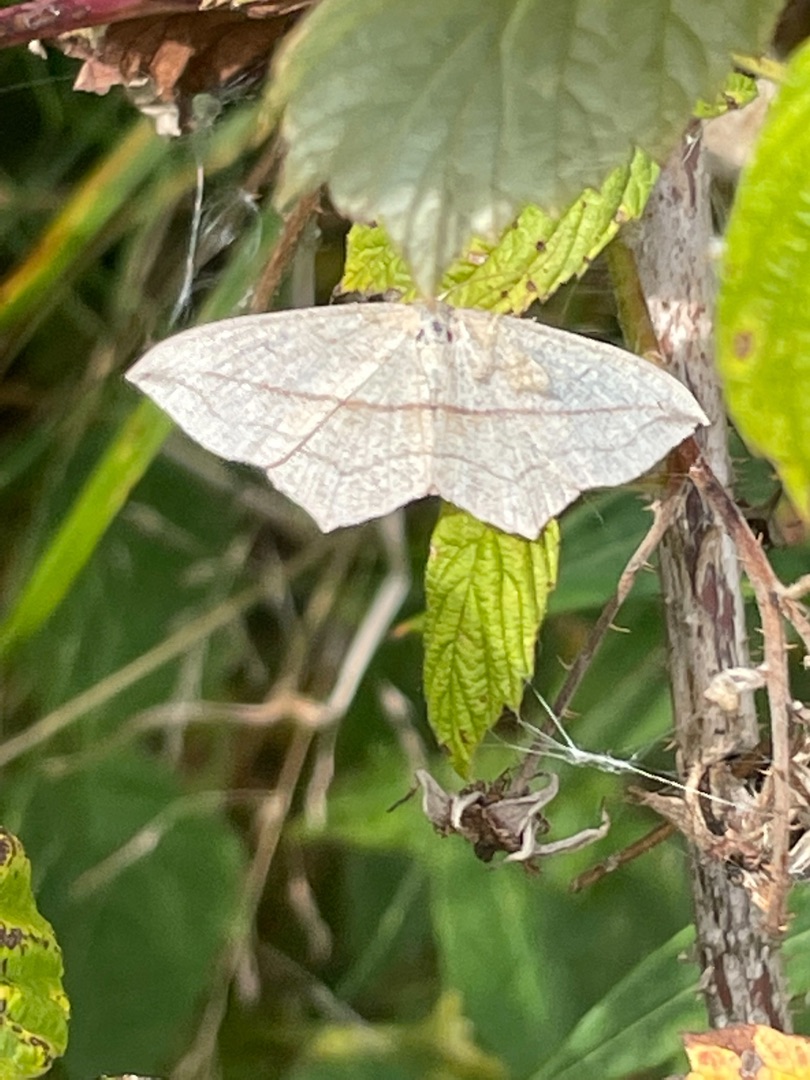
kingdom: Animalia
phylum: Arthropoda
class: Insecta
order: Lepidoptera
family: Geometridae
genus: Timandra
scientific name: Timandra griseata
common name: Syremåler
